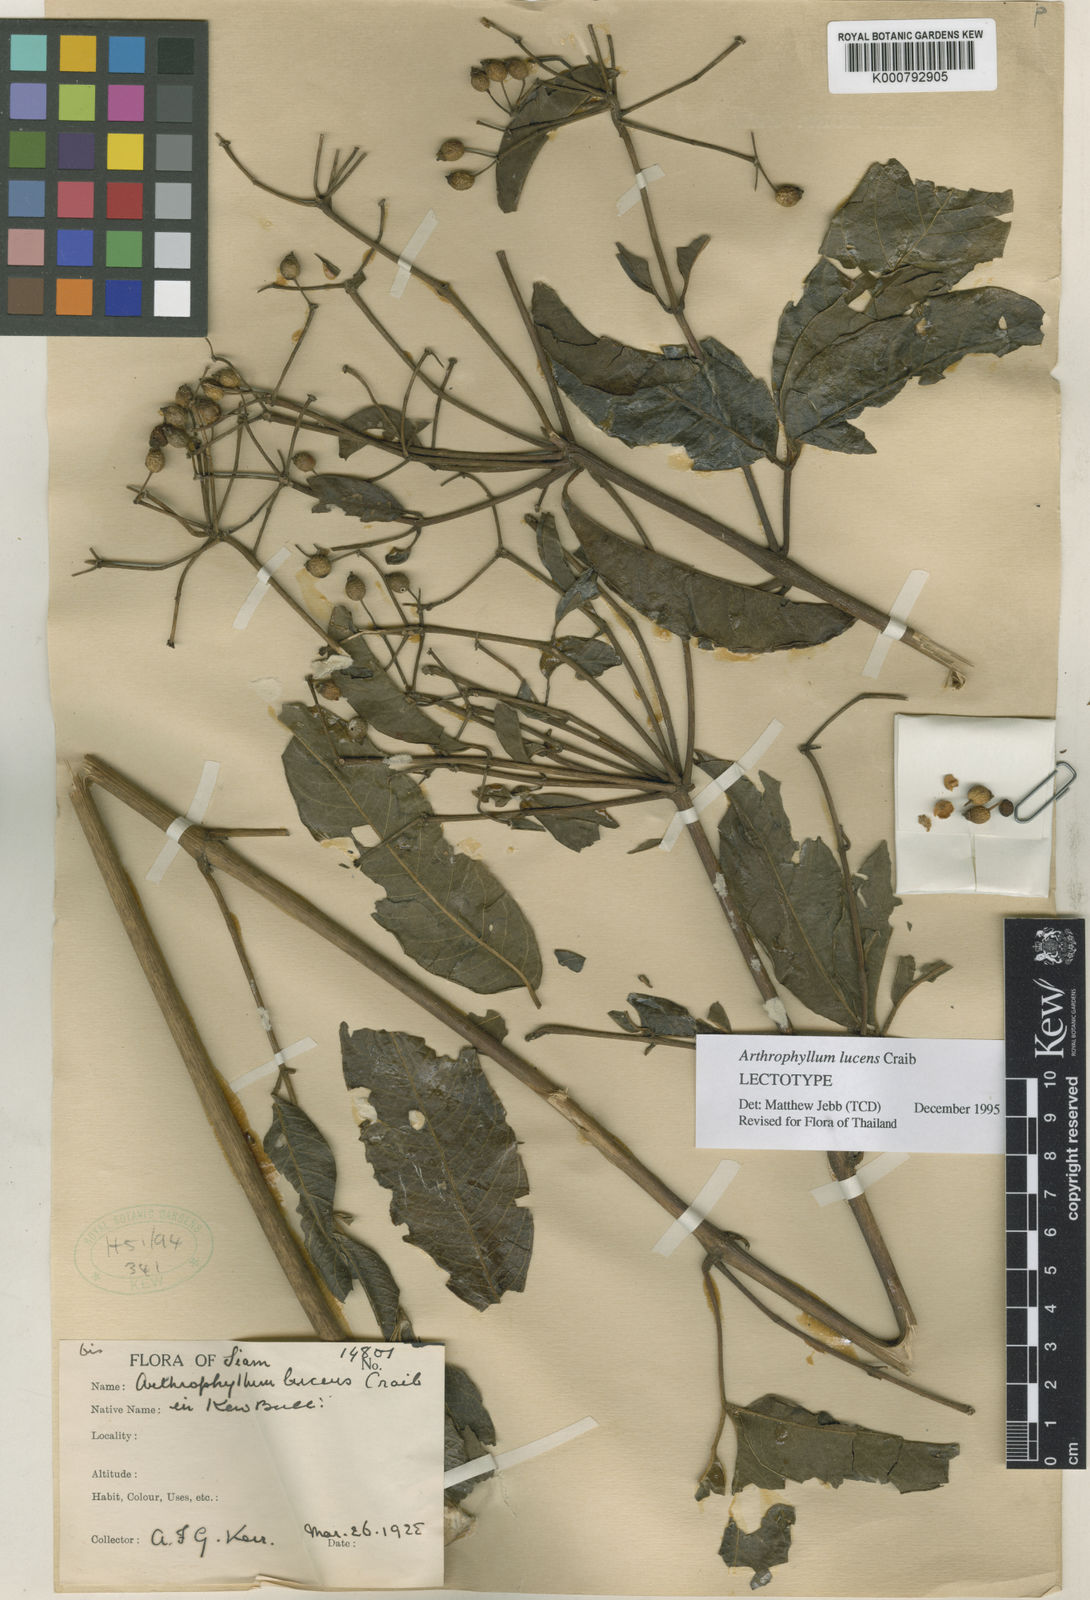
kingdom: Plantae
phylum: Tracheophyta
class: Magnoliopsida
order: Apiales
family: Araliaceae
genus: Polyscias
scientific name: Polyscias meliifolia
